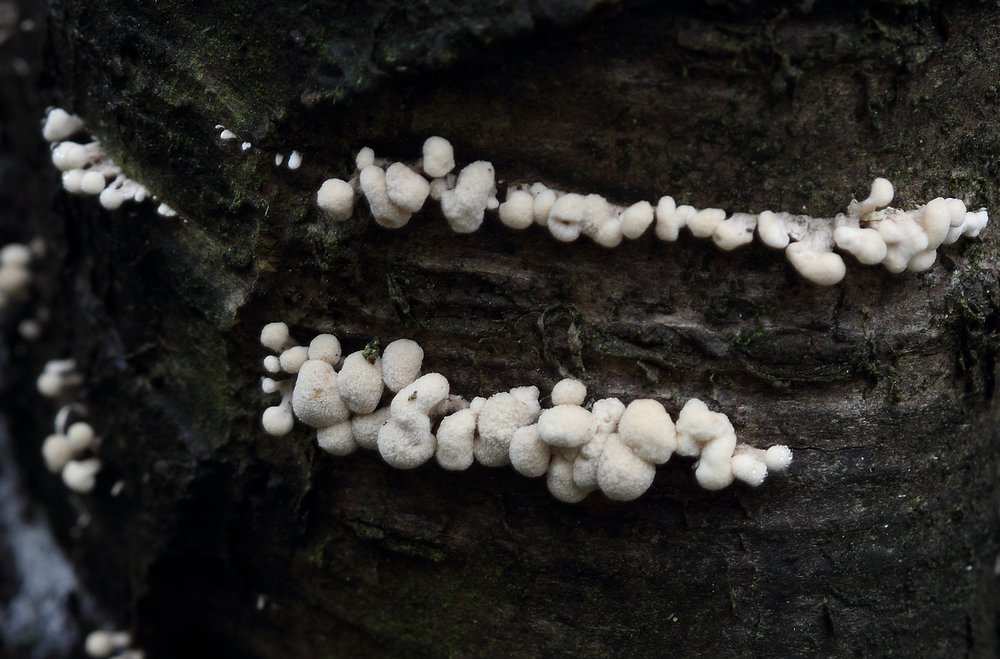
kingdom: Fungi
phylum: Basidiomycota
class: Atractiellomycetes
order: Atractiellales
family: Phleogenaceae
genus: Phleogena
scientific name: Phleogena faginea
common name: pudderkølle
